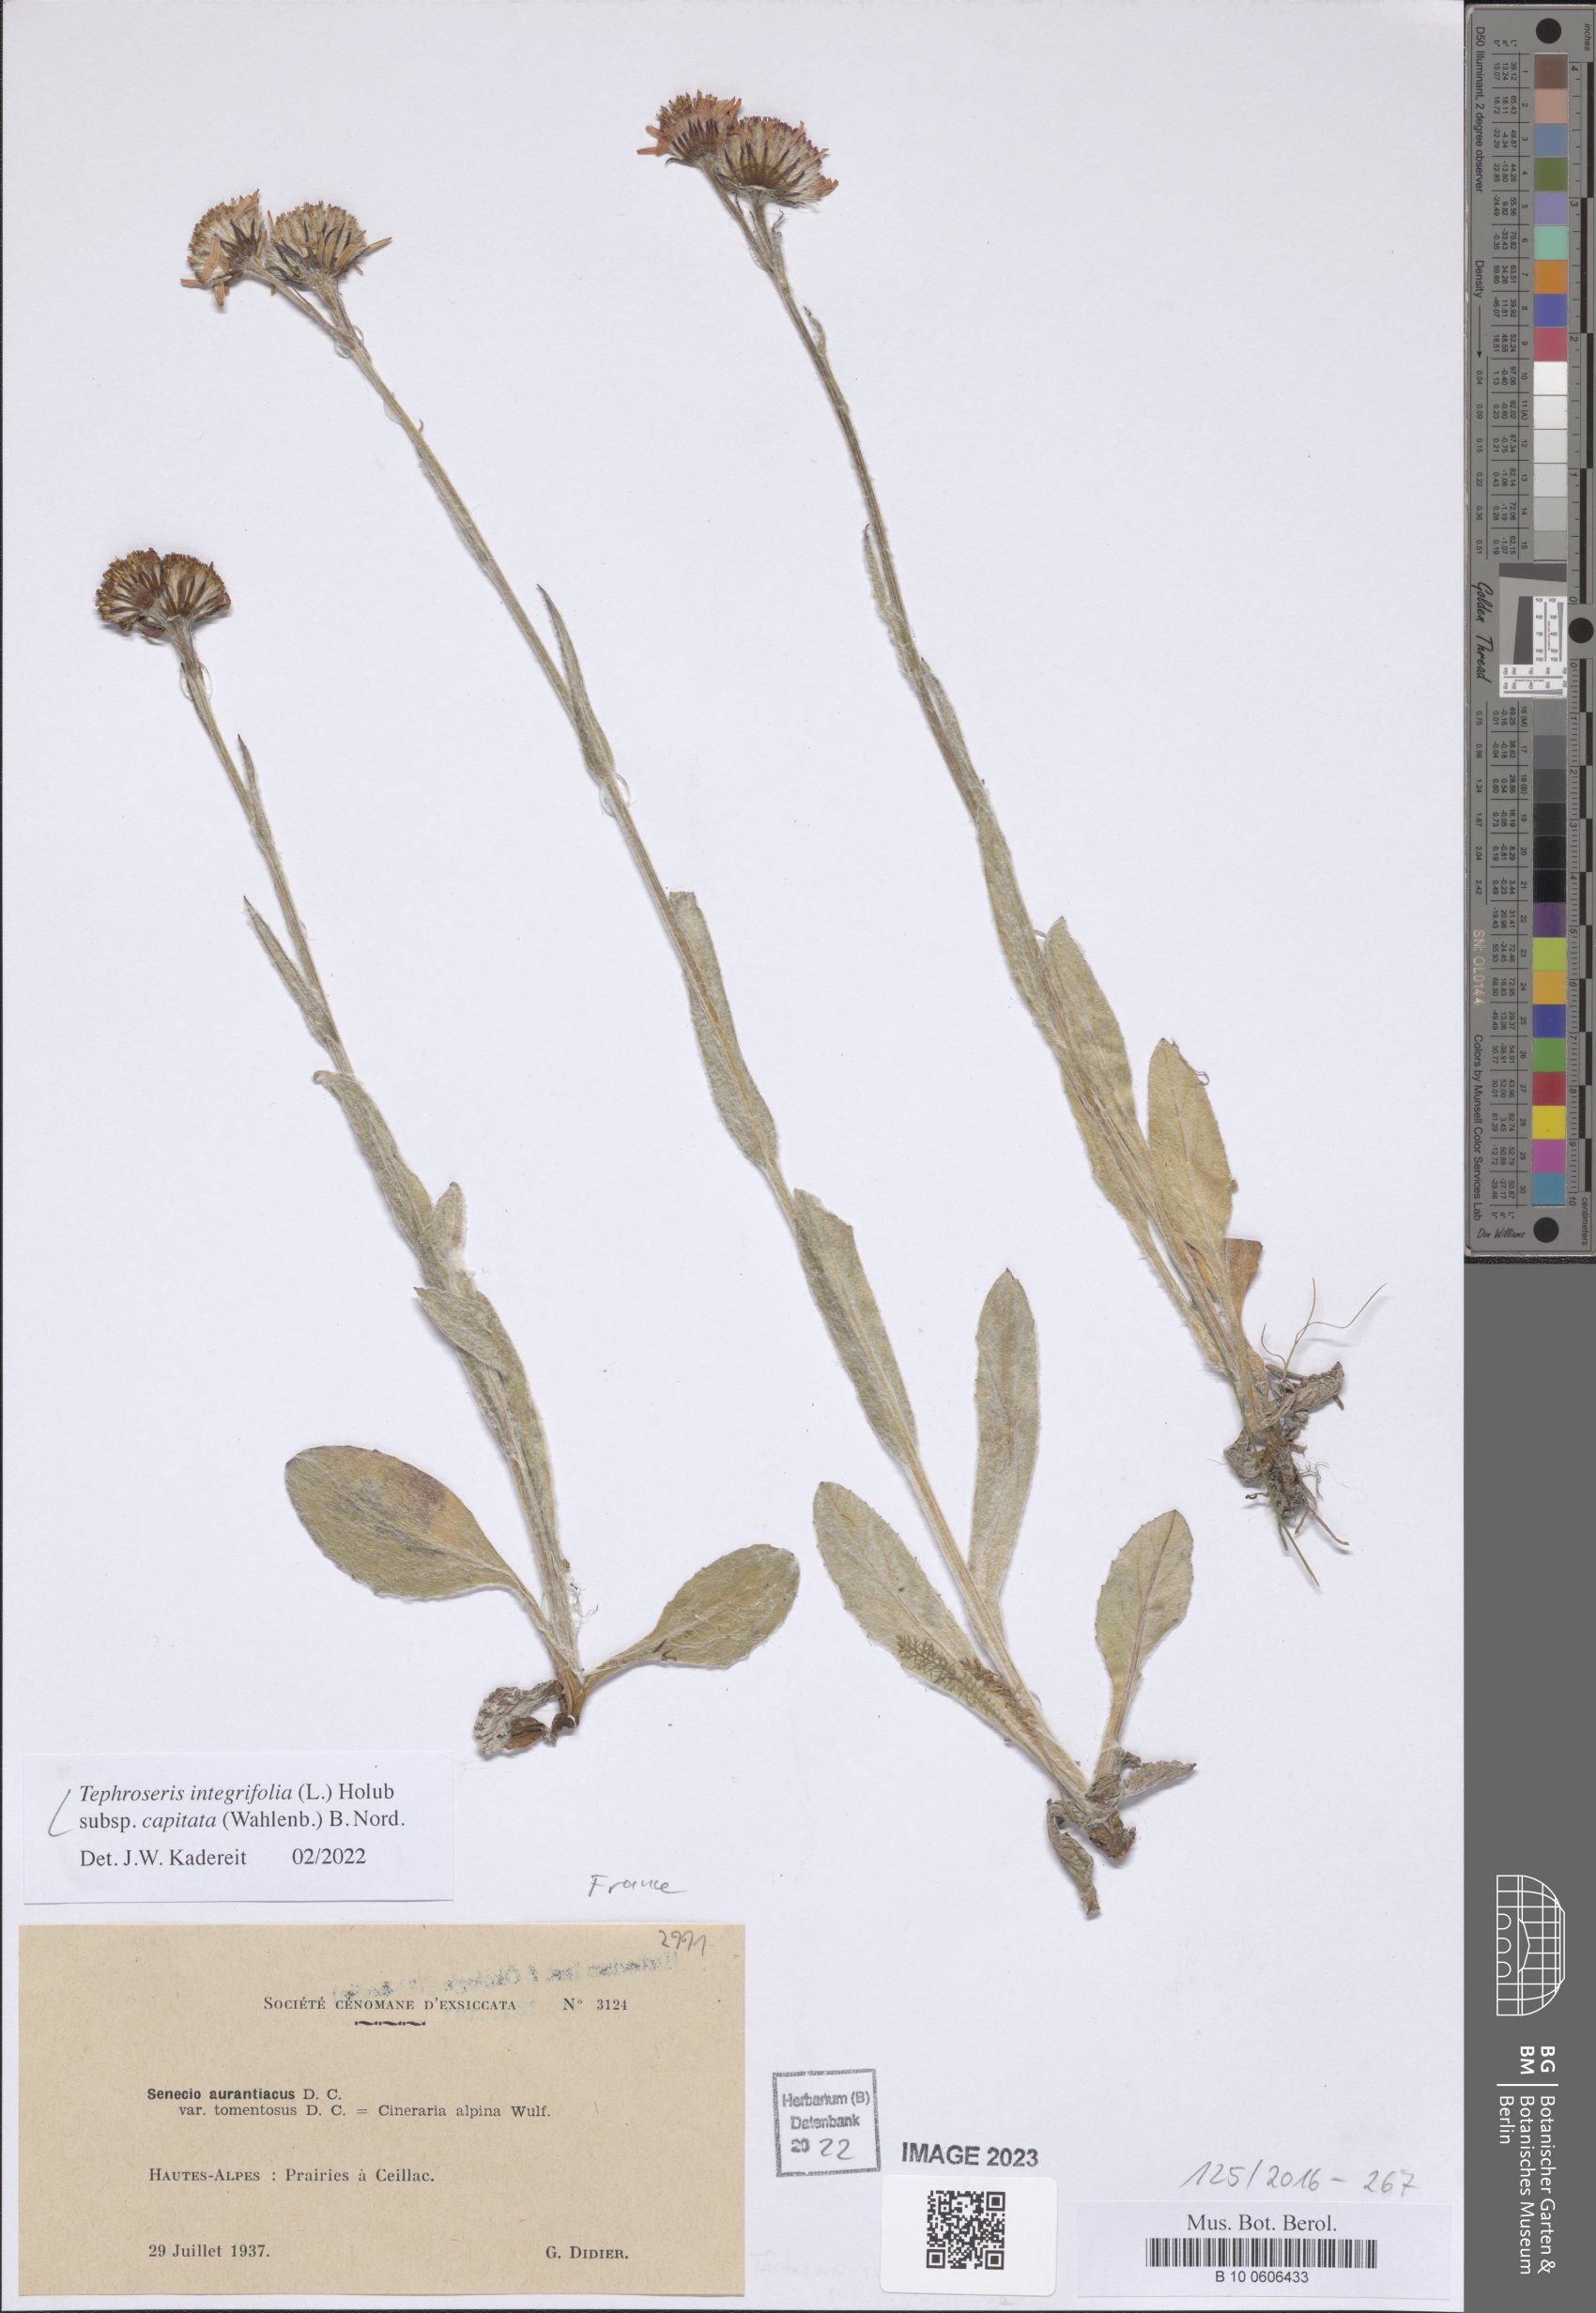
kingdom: Plantae
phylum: Tracheophyta
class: Magnoliopsida
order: Asterales
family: Asteraceae
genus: Tephroseris
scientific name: Tephroseris integrifolia
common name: Field fleawort
